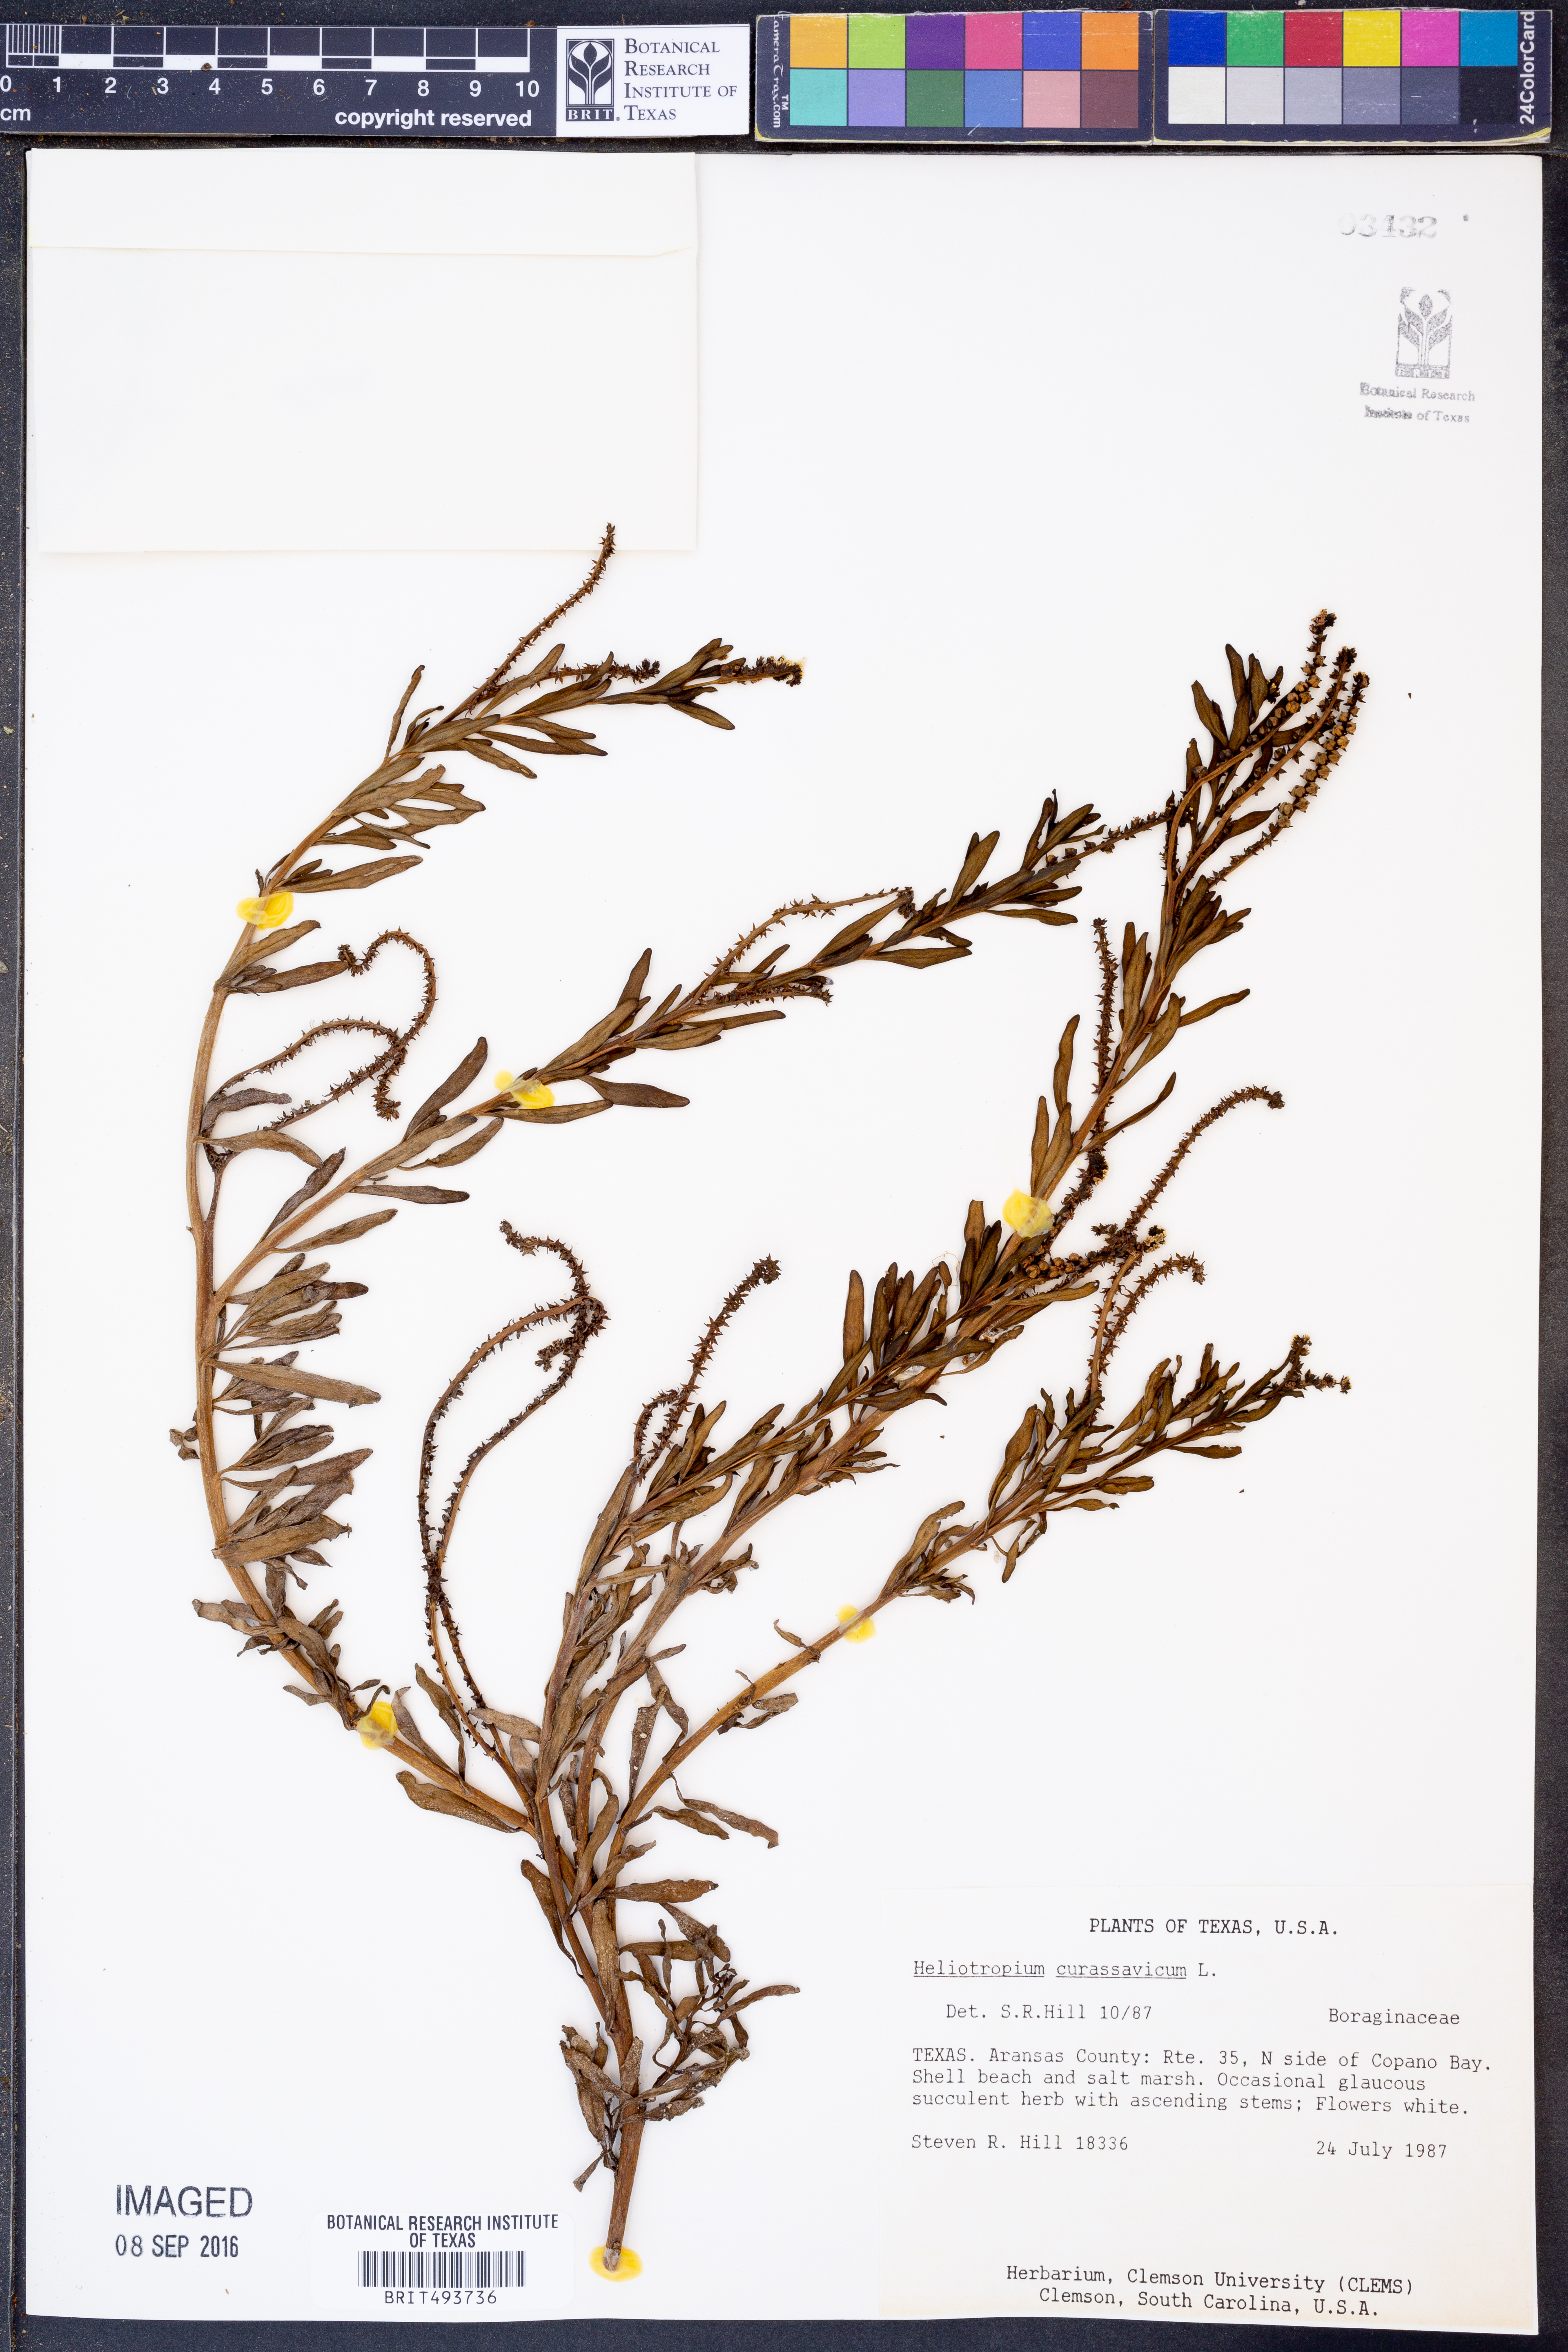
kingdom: Plantae
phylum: Tracheophyta
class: Magnoliopsida
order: Boraginales
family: Heliotropiaceae
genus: Heliotropium
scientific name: Heliotropium curassavicum
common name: Seaside heliotrope
